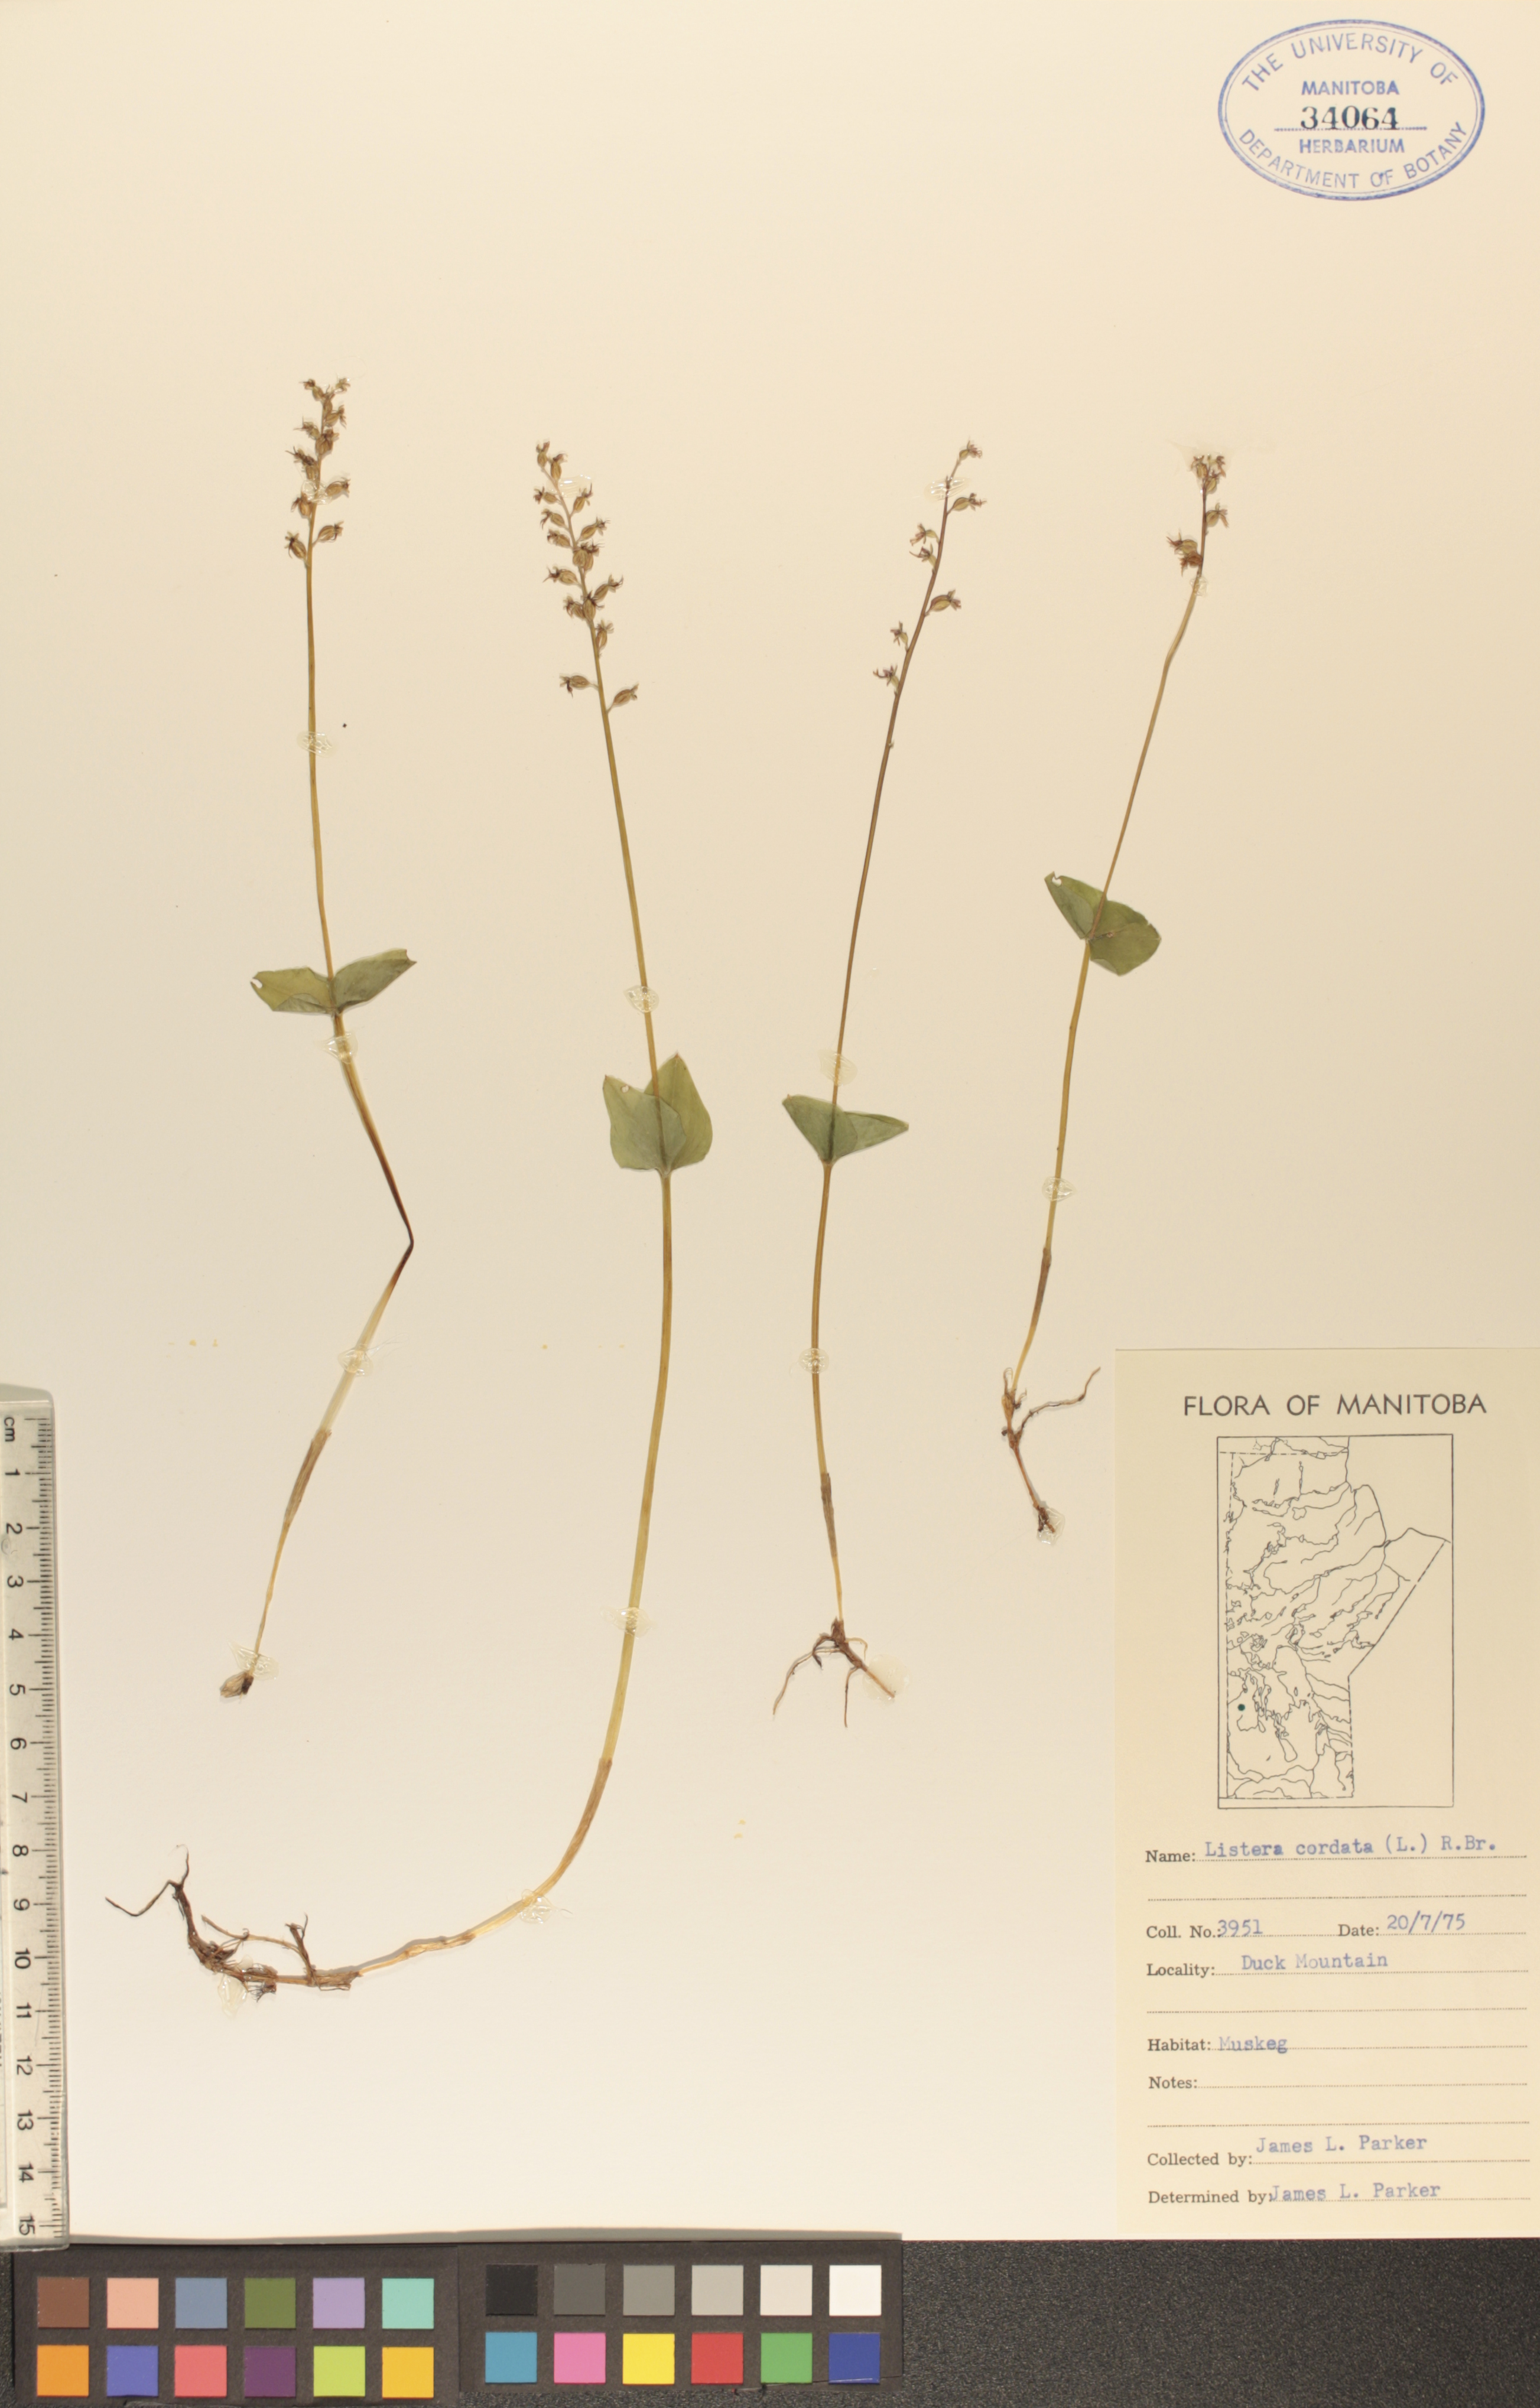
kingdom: Plantae
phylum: Tracheophyta
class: Liliopsida
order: Asparagales
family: Orchidaceae
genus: Neottia
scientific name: Neottia cordata
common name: Lesser twayblade
